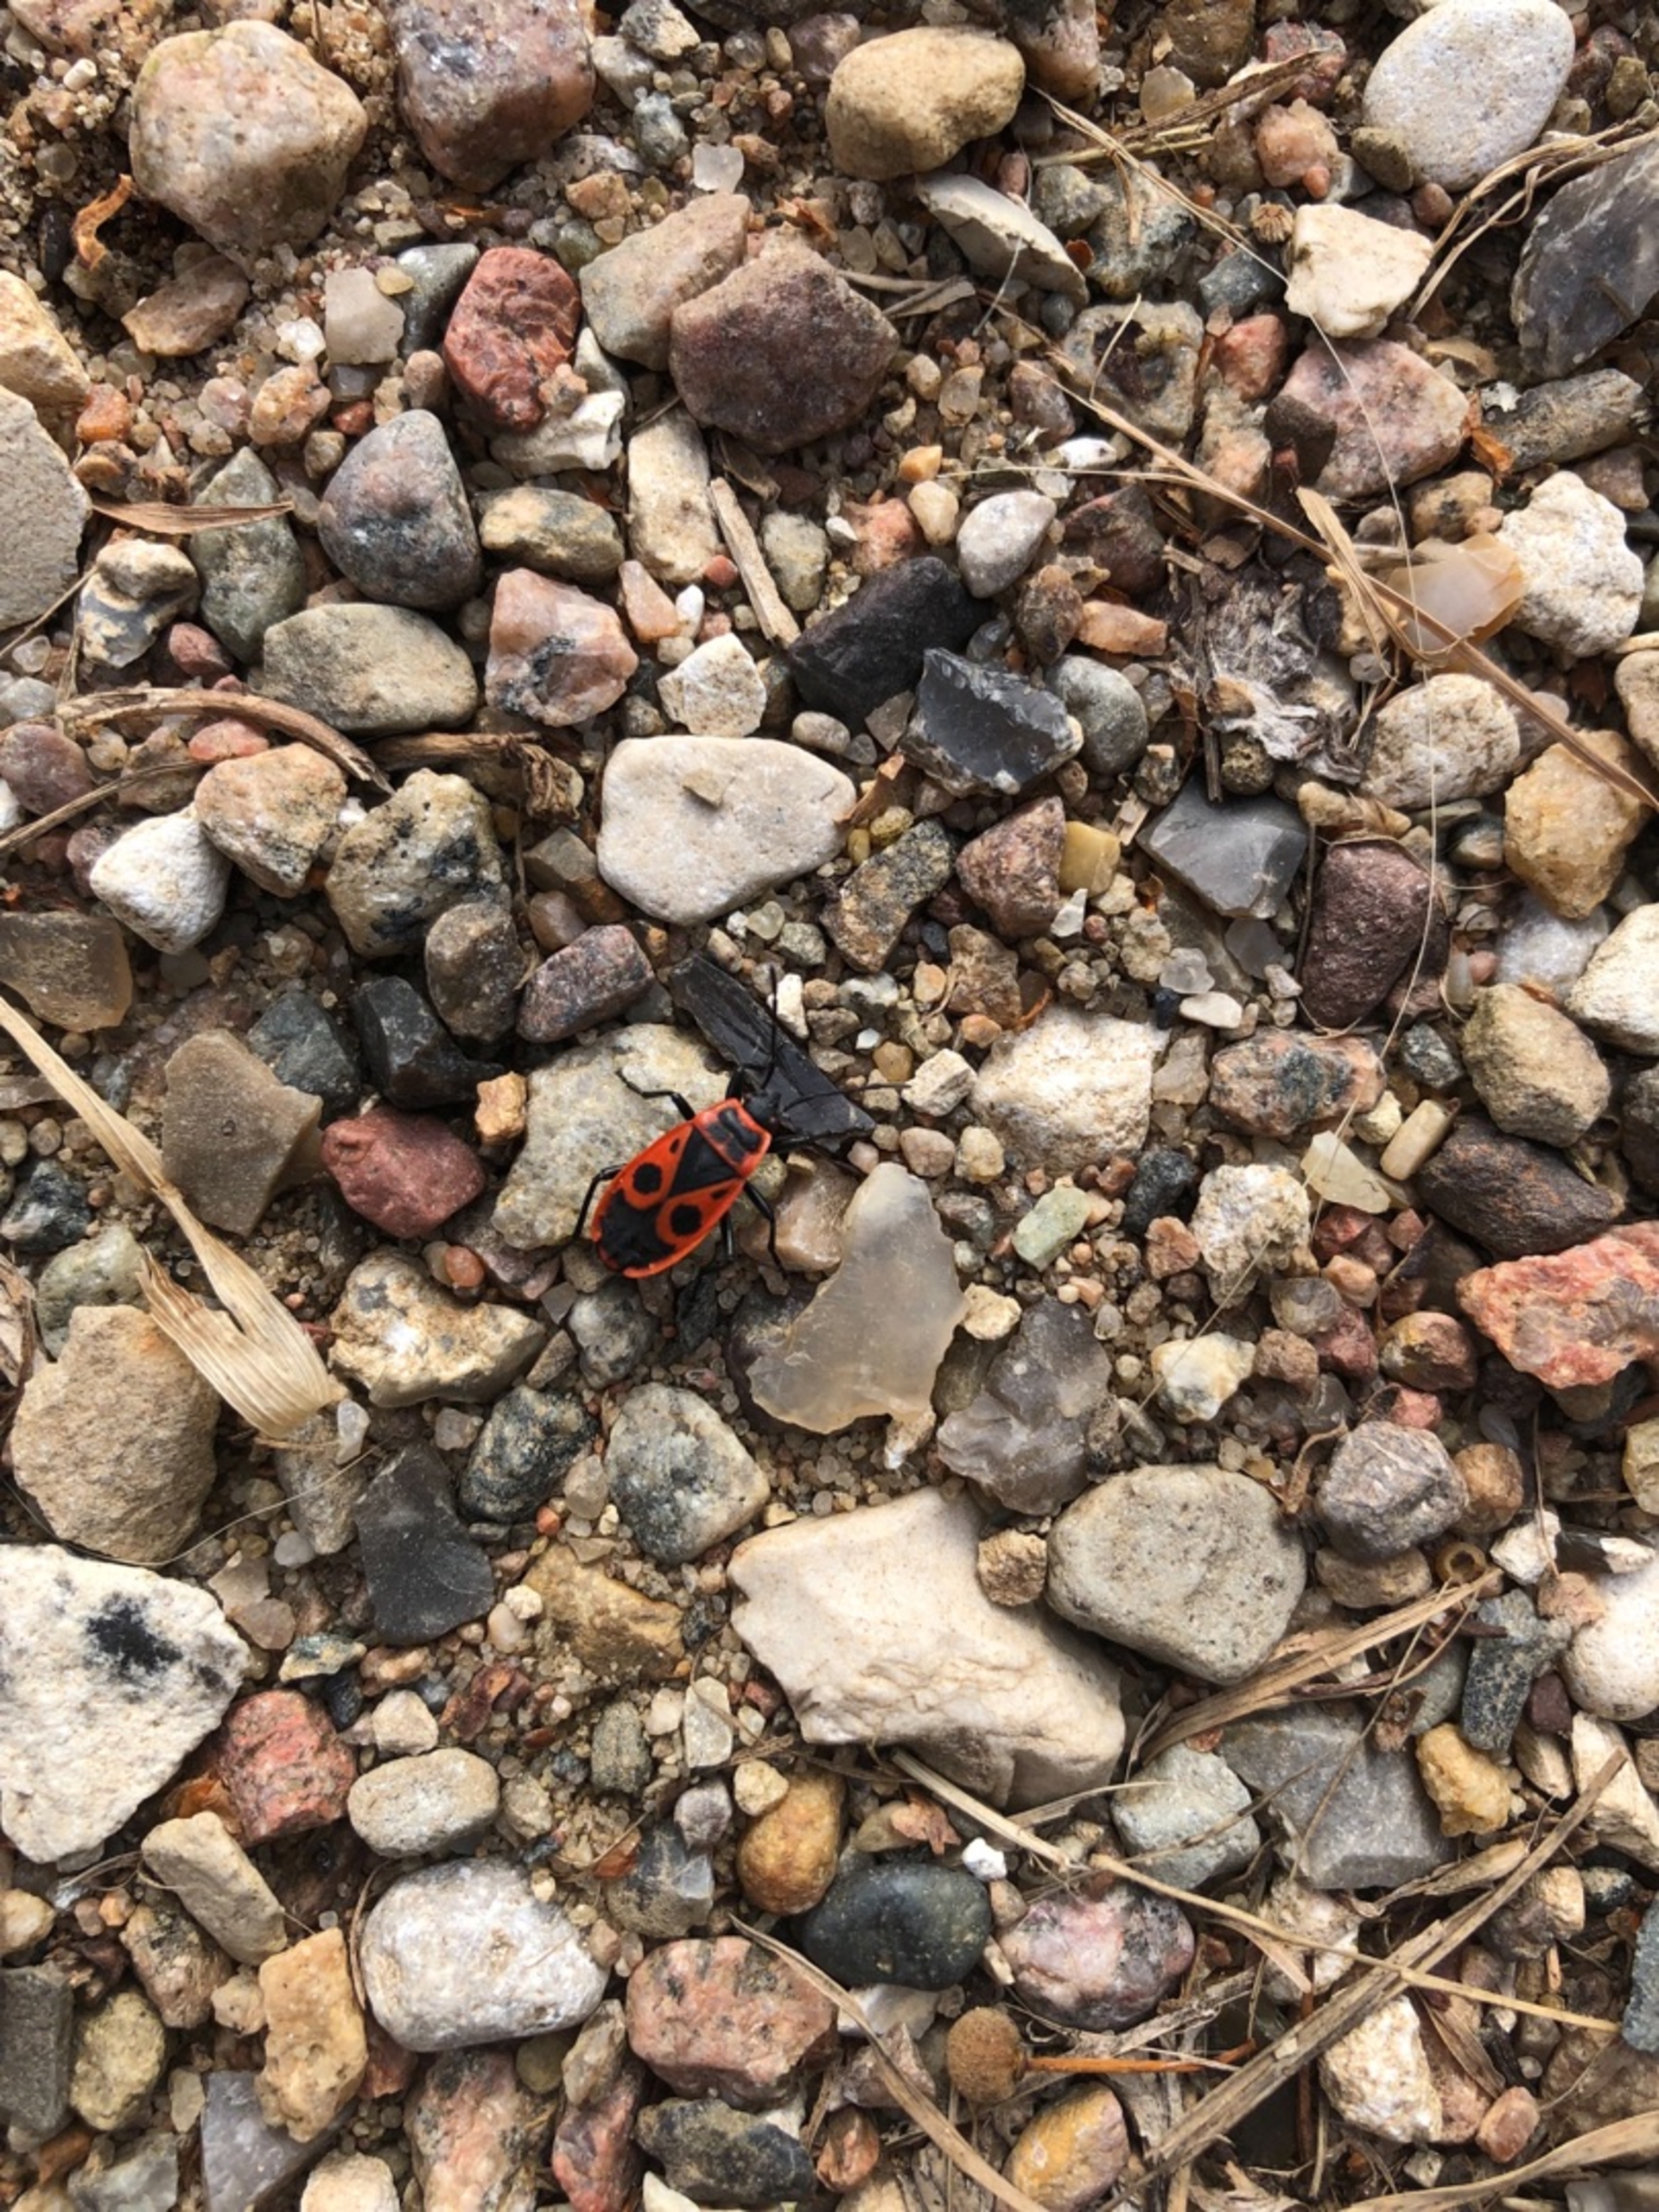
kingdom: Animalia
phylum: Arthropoda
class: Insecta
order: Hemiptera
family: Pyrrhocoridae
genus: Pyrrhocoris
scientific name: Pyrrhocoris apterus
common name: Ildtæge
